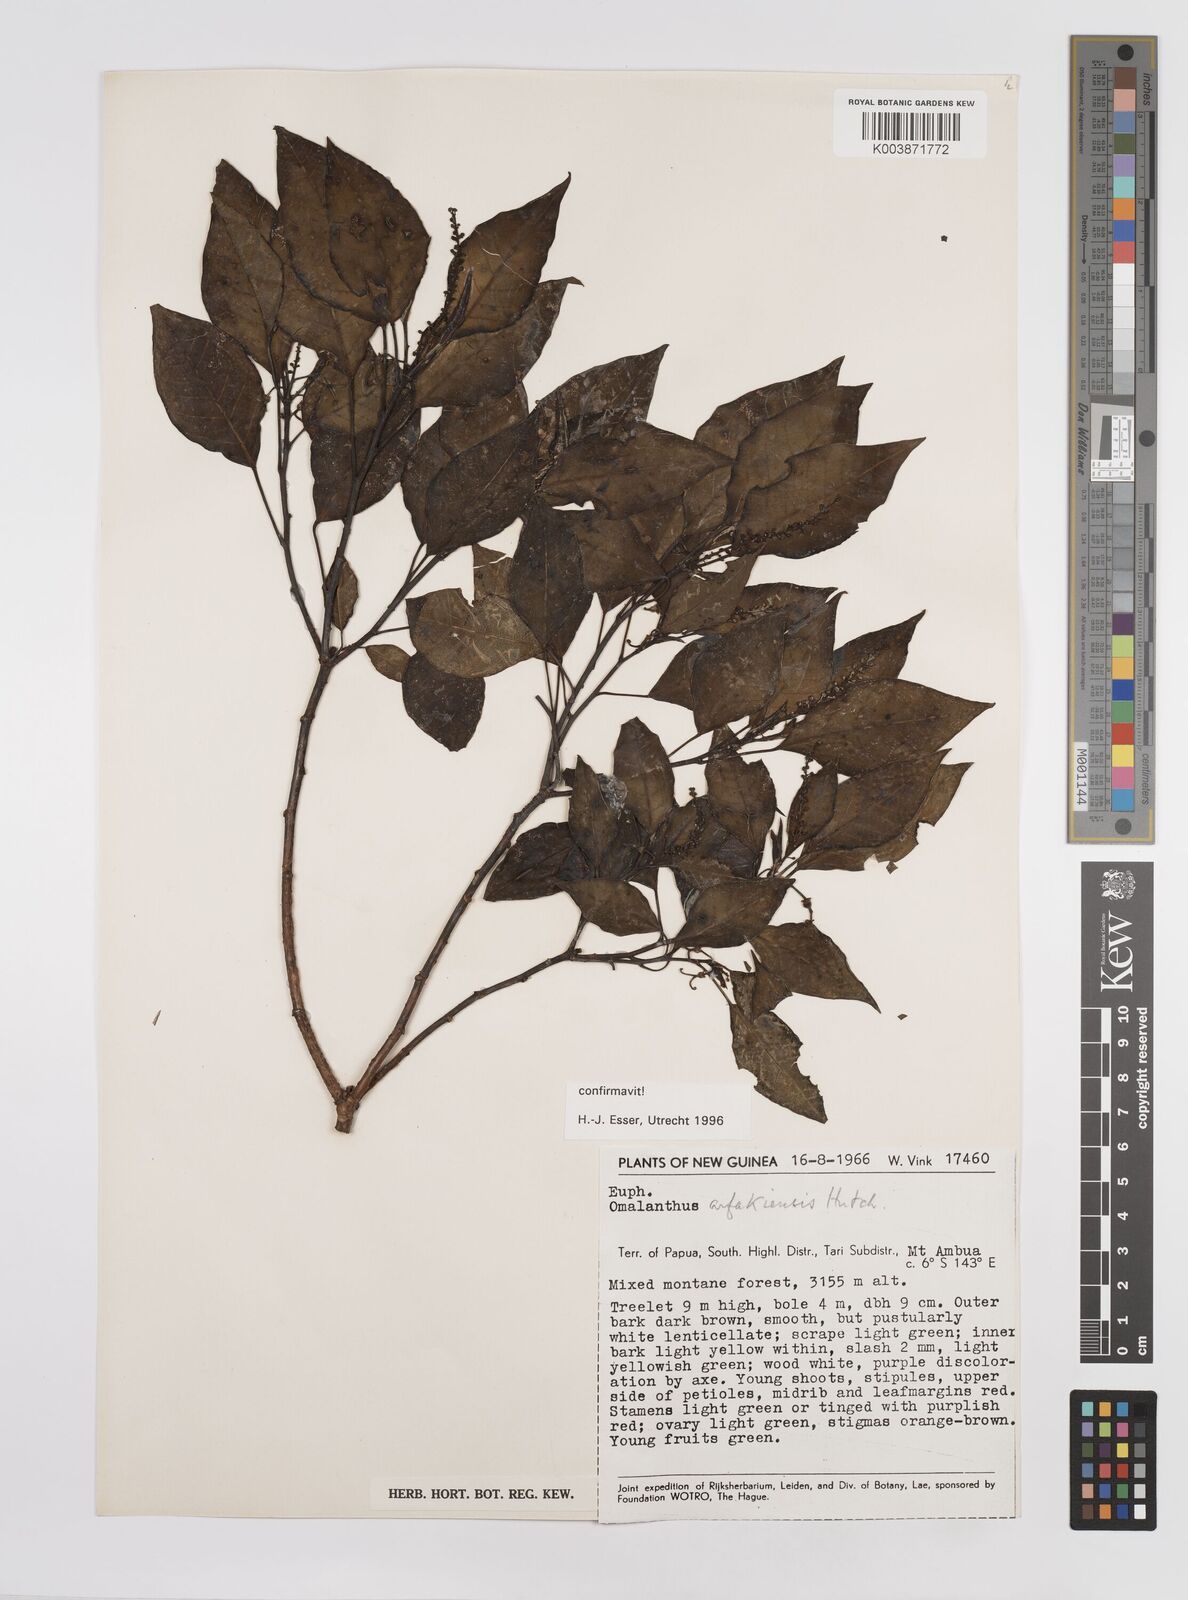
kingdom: Plantae
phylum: Tracheophyta
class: Magnoliopsida
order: Malpighiales
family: Euphorbiaceae
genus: Homalanthus
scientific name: Homalanthus arfakiensis
